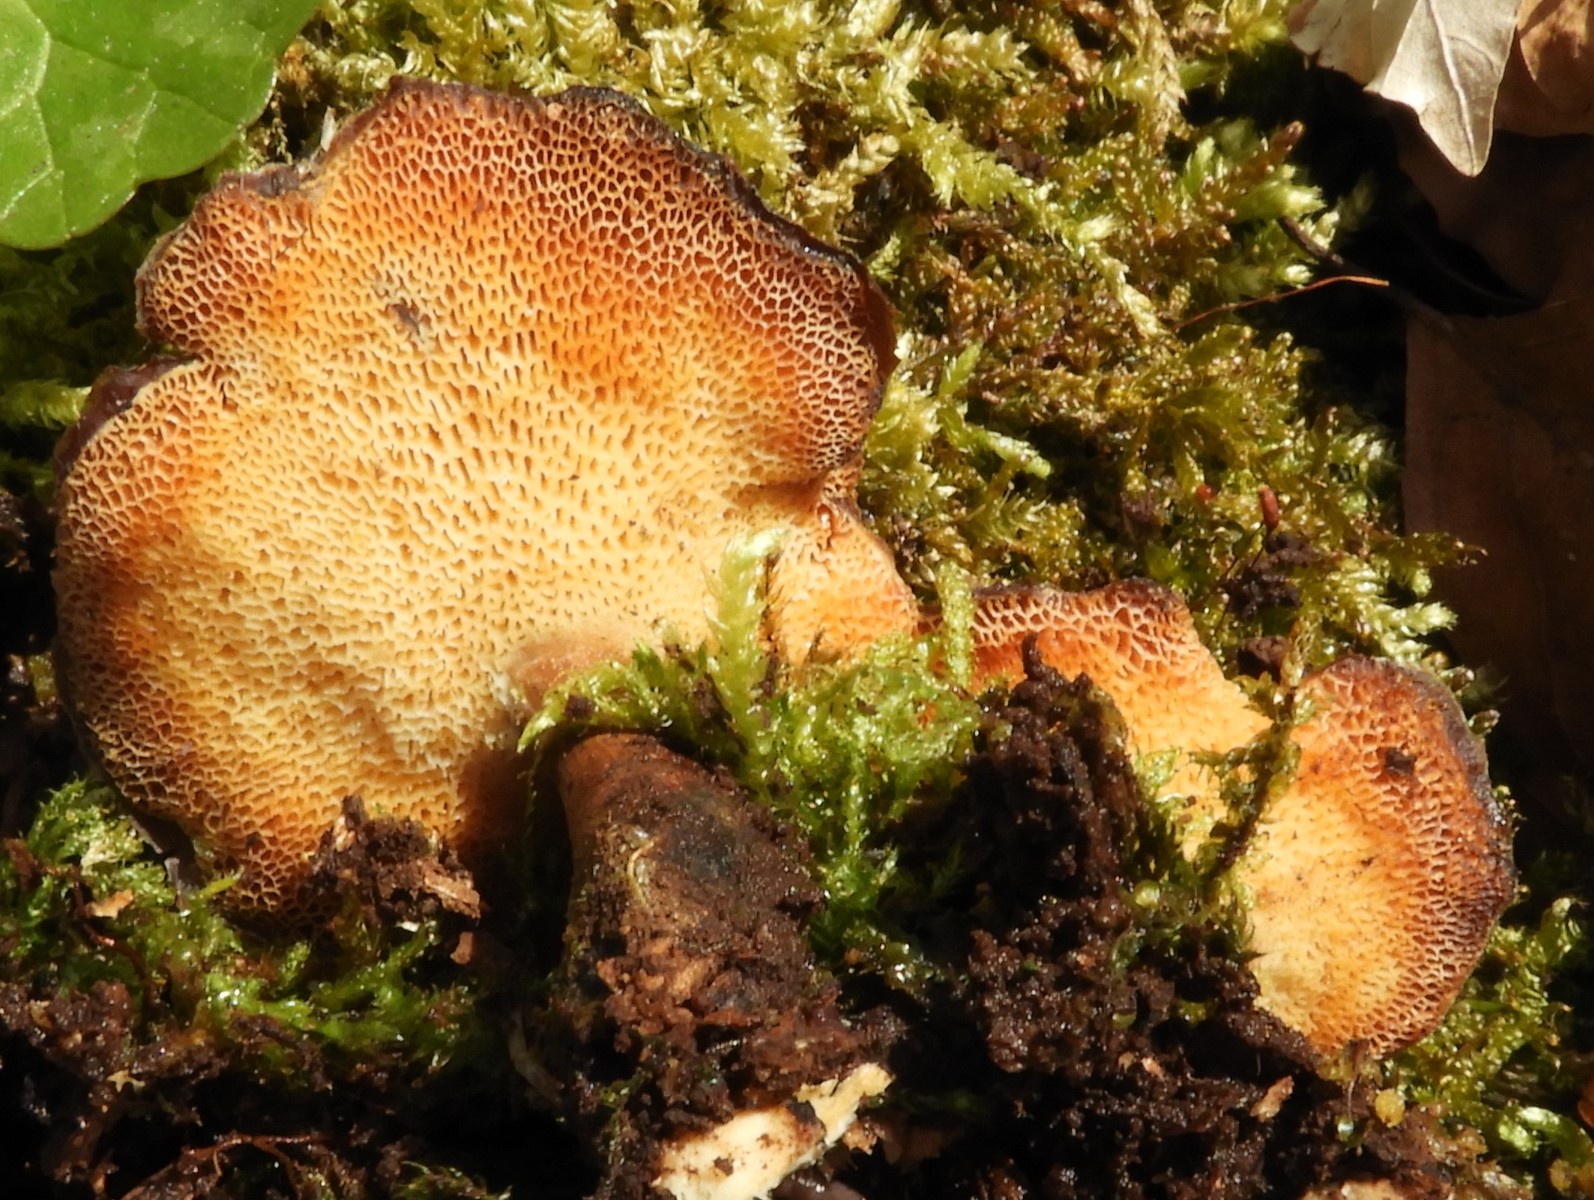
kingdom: Fungi
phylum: Basidiomycota
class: Agaricomycetes
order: Polyporales
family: Polyporaceae
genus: Lentinus
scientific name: Lentinus brumalis
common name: vinter-stilkporesvamp
